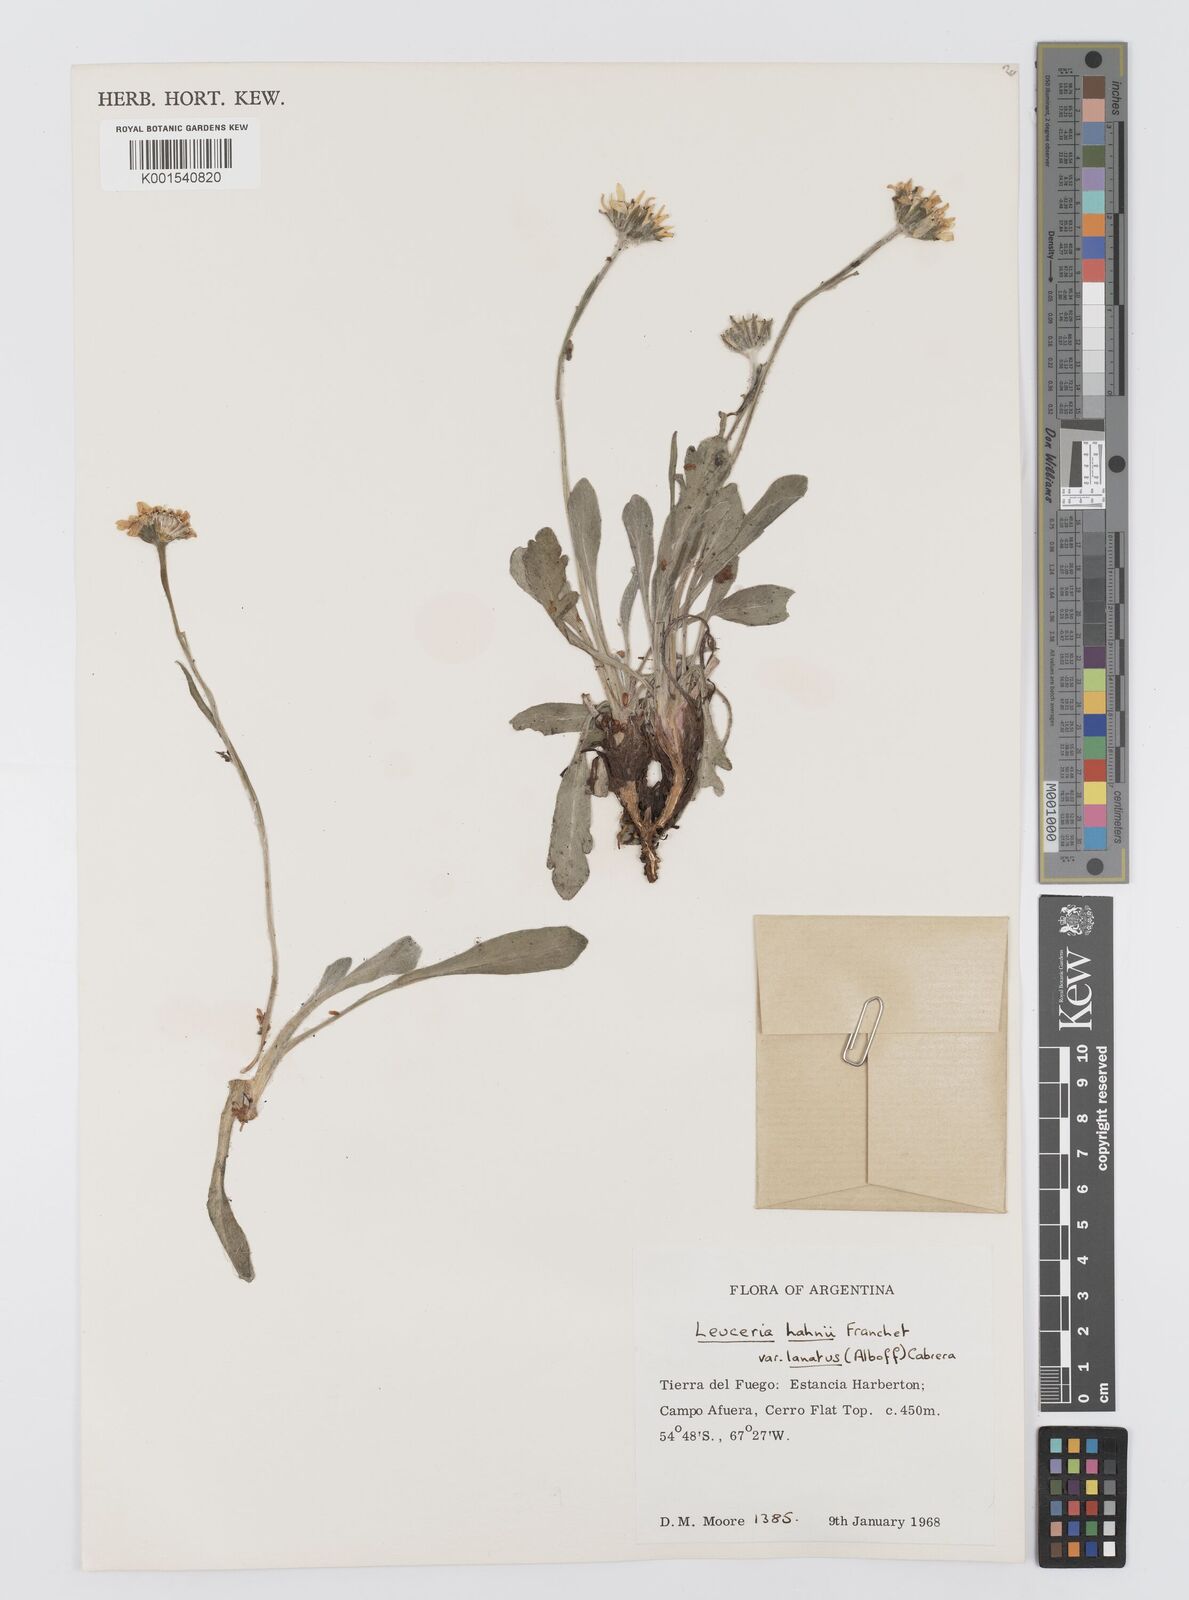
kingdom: Plantae
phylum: Tracheophyta
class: Magnoliopsida
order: Asterales
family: Asteraceae
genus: Leucheria
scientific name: Leucheria hahnii
